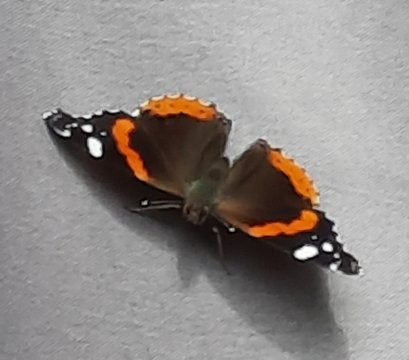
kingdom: Animalia
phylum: Arthropoda
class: Insecta
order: Lepidoptera
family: Nymphalidae
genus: Vanessa
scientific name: Vanessa atalanta
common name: Red Admiral
